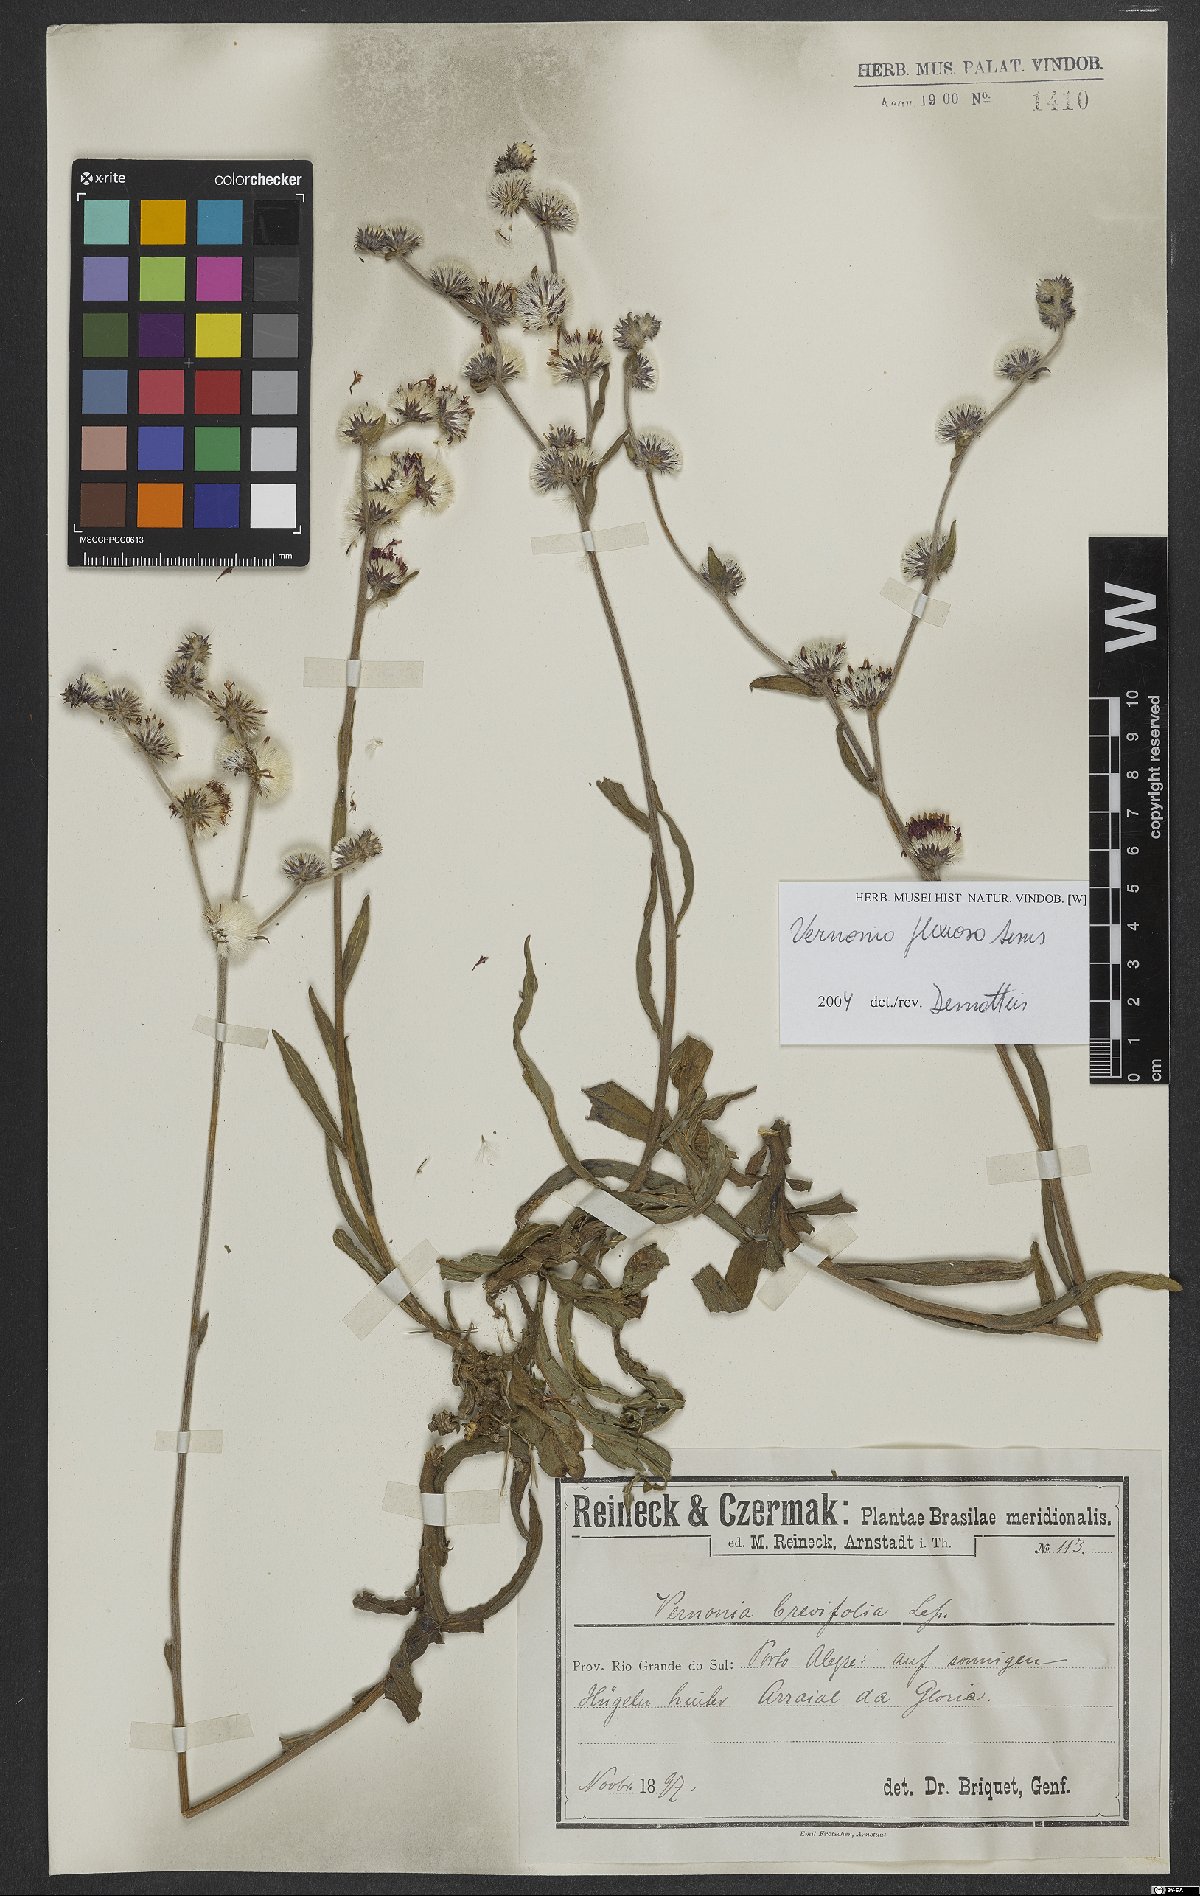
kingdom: Plantae
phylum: Tracheophyta
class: Magnoliopsida
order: Asterales
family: Asteraceae
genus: Chrysolaena
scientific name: Chrysolaena flexuosa
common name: Zig-zag vernonia
